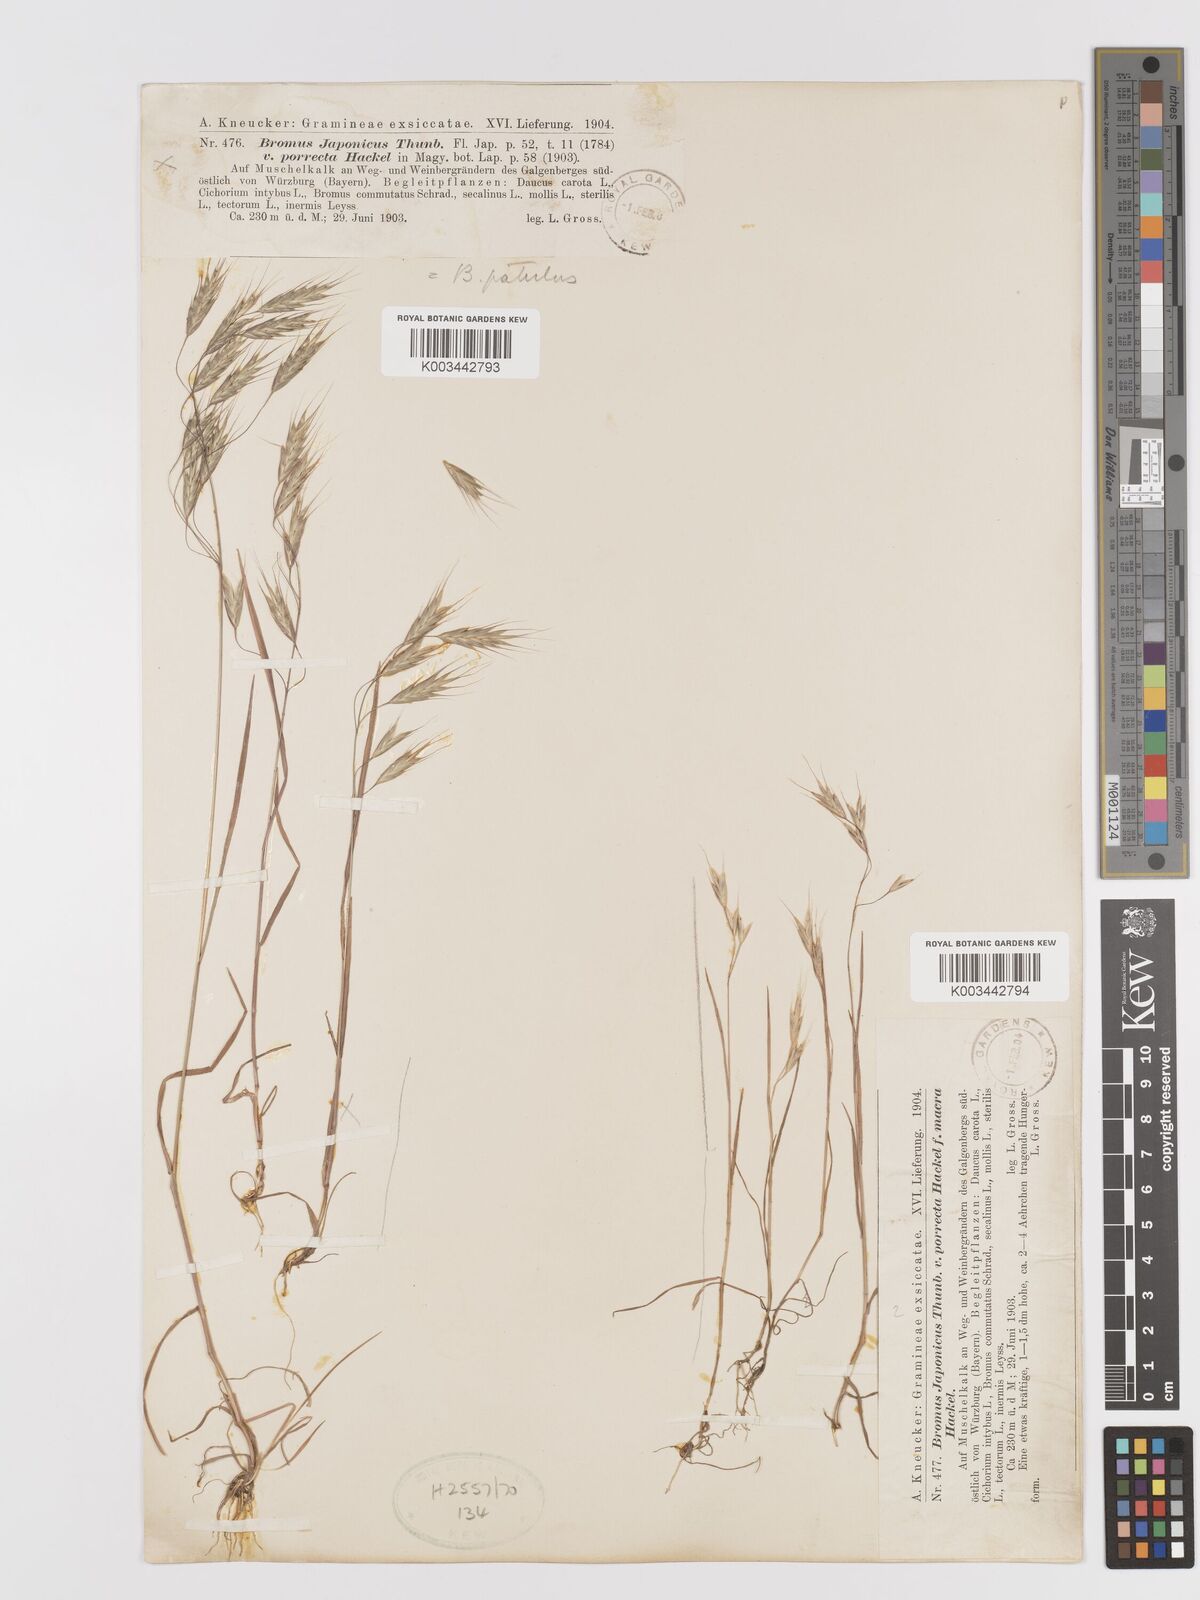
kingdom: Plantae
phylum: Tracheophyta
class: Liliopsida
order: Poales
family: Poaceae
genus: Bromus
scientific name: Bromus japonicus
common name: Japanese brome
